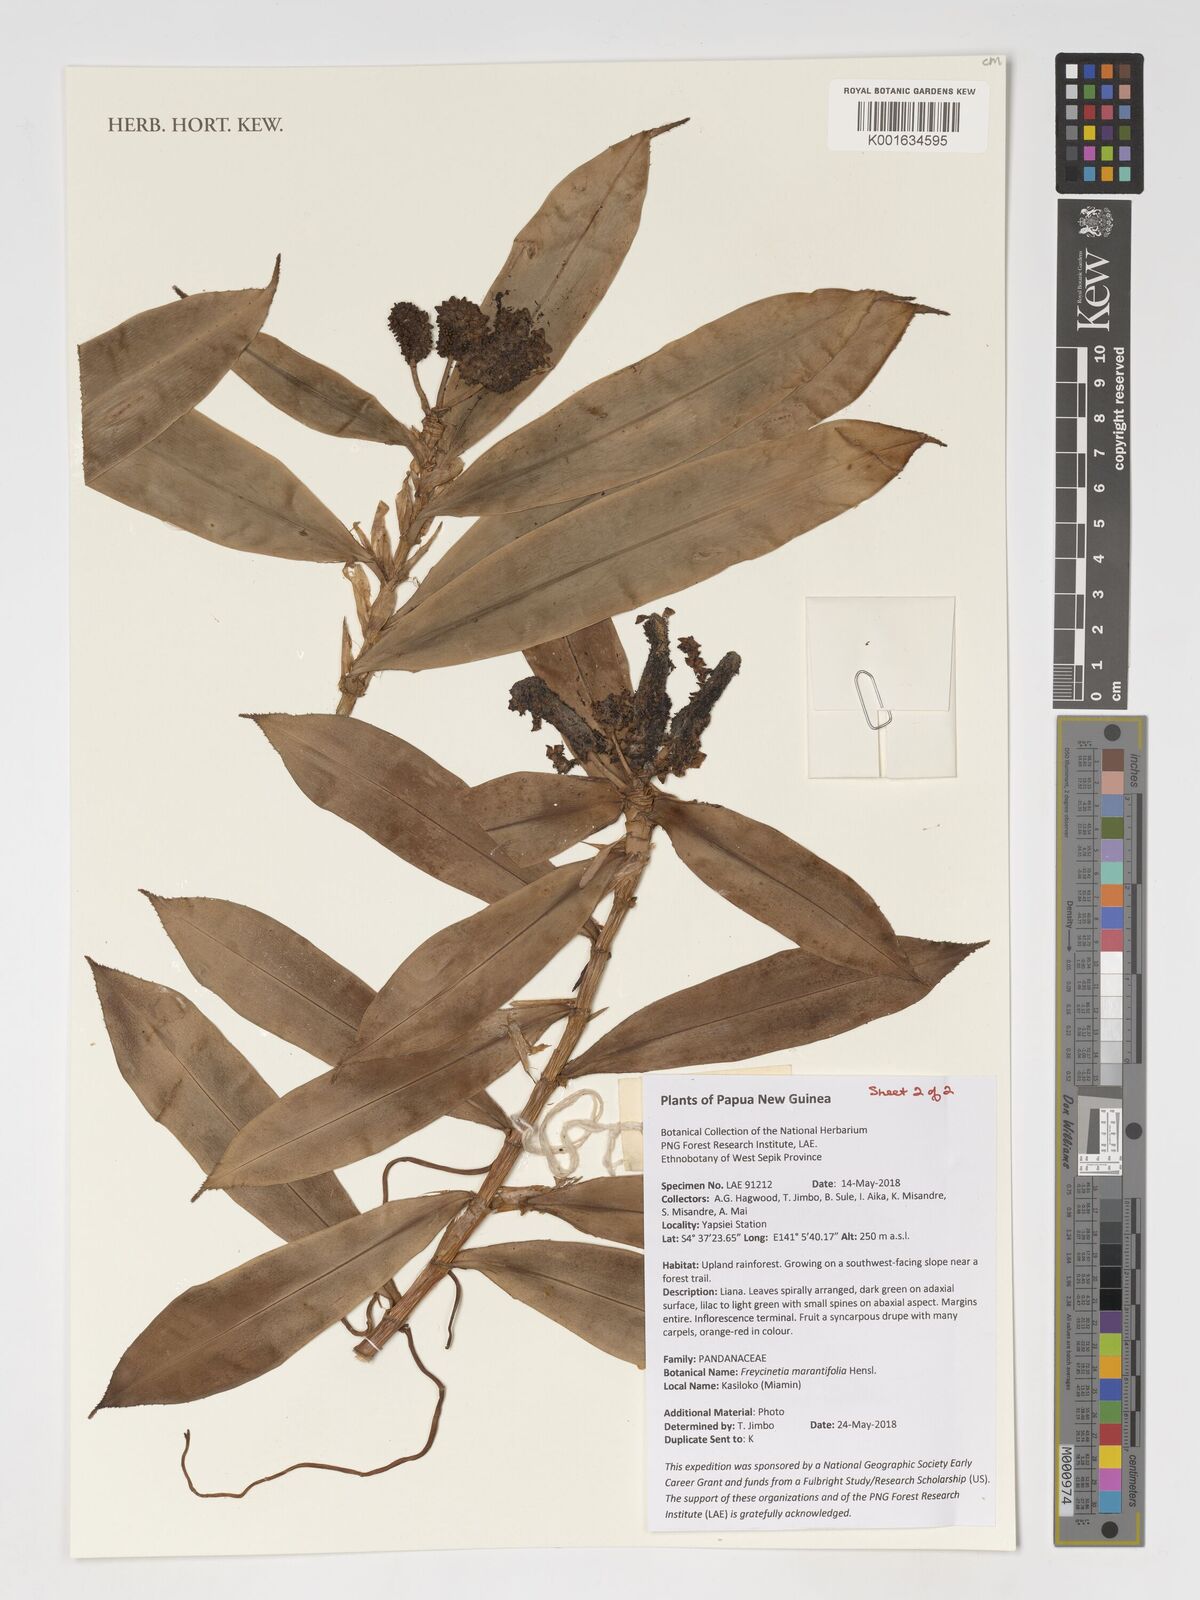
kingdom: Plantae
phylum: Tracheophyta
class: Liliopsida
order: Pandanales
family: Pandanaceae
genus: Freycinetia
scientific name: Freycinetia marantifolia
